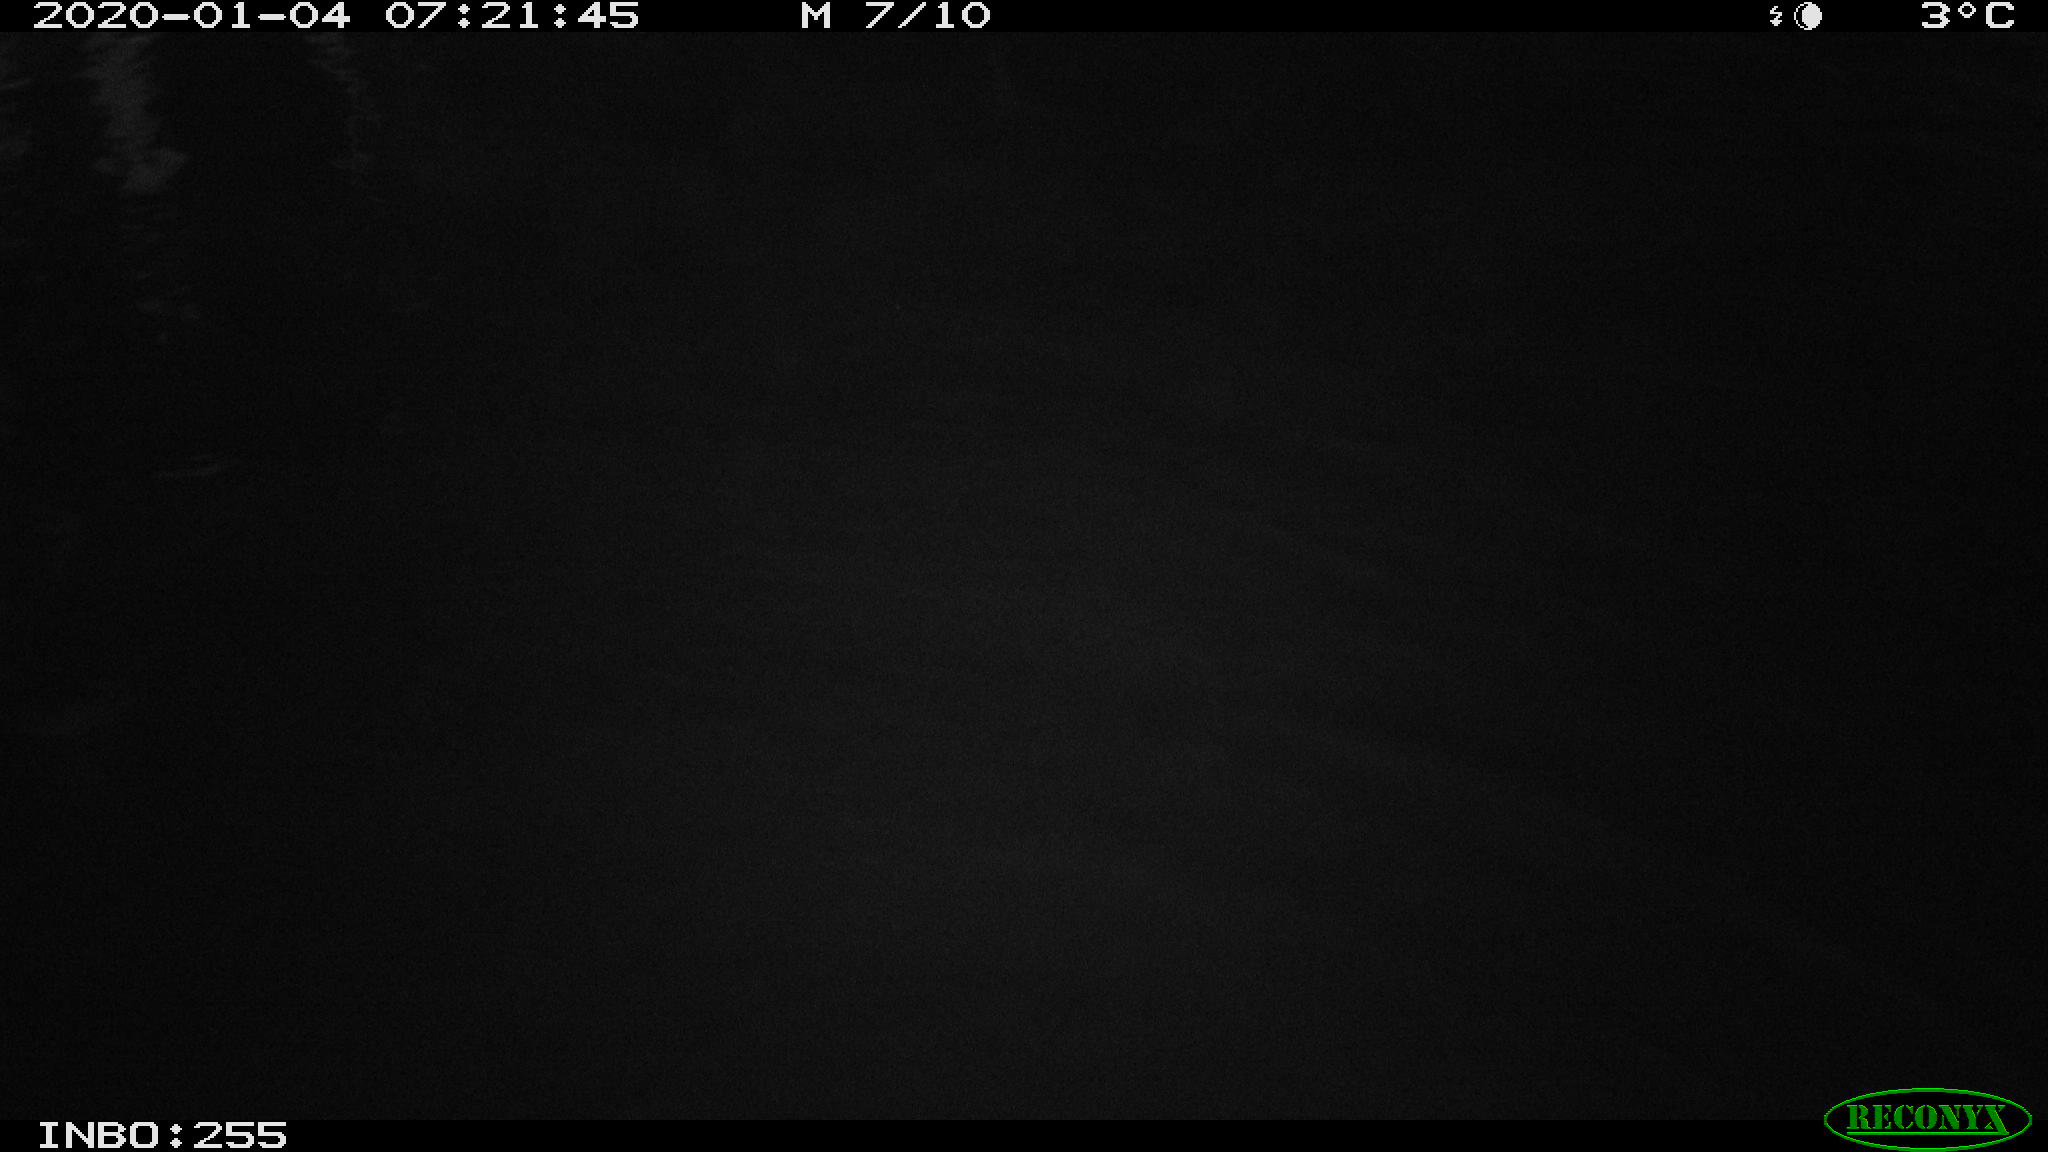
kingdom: Animalia
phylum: Chordata
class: Aves
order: Anseriformes
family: Anatidae
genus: Anas
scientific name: Anas platyrhynchos
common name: Mallard
